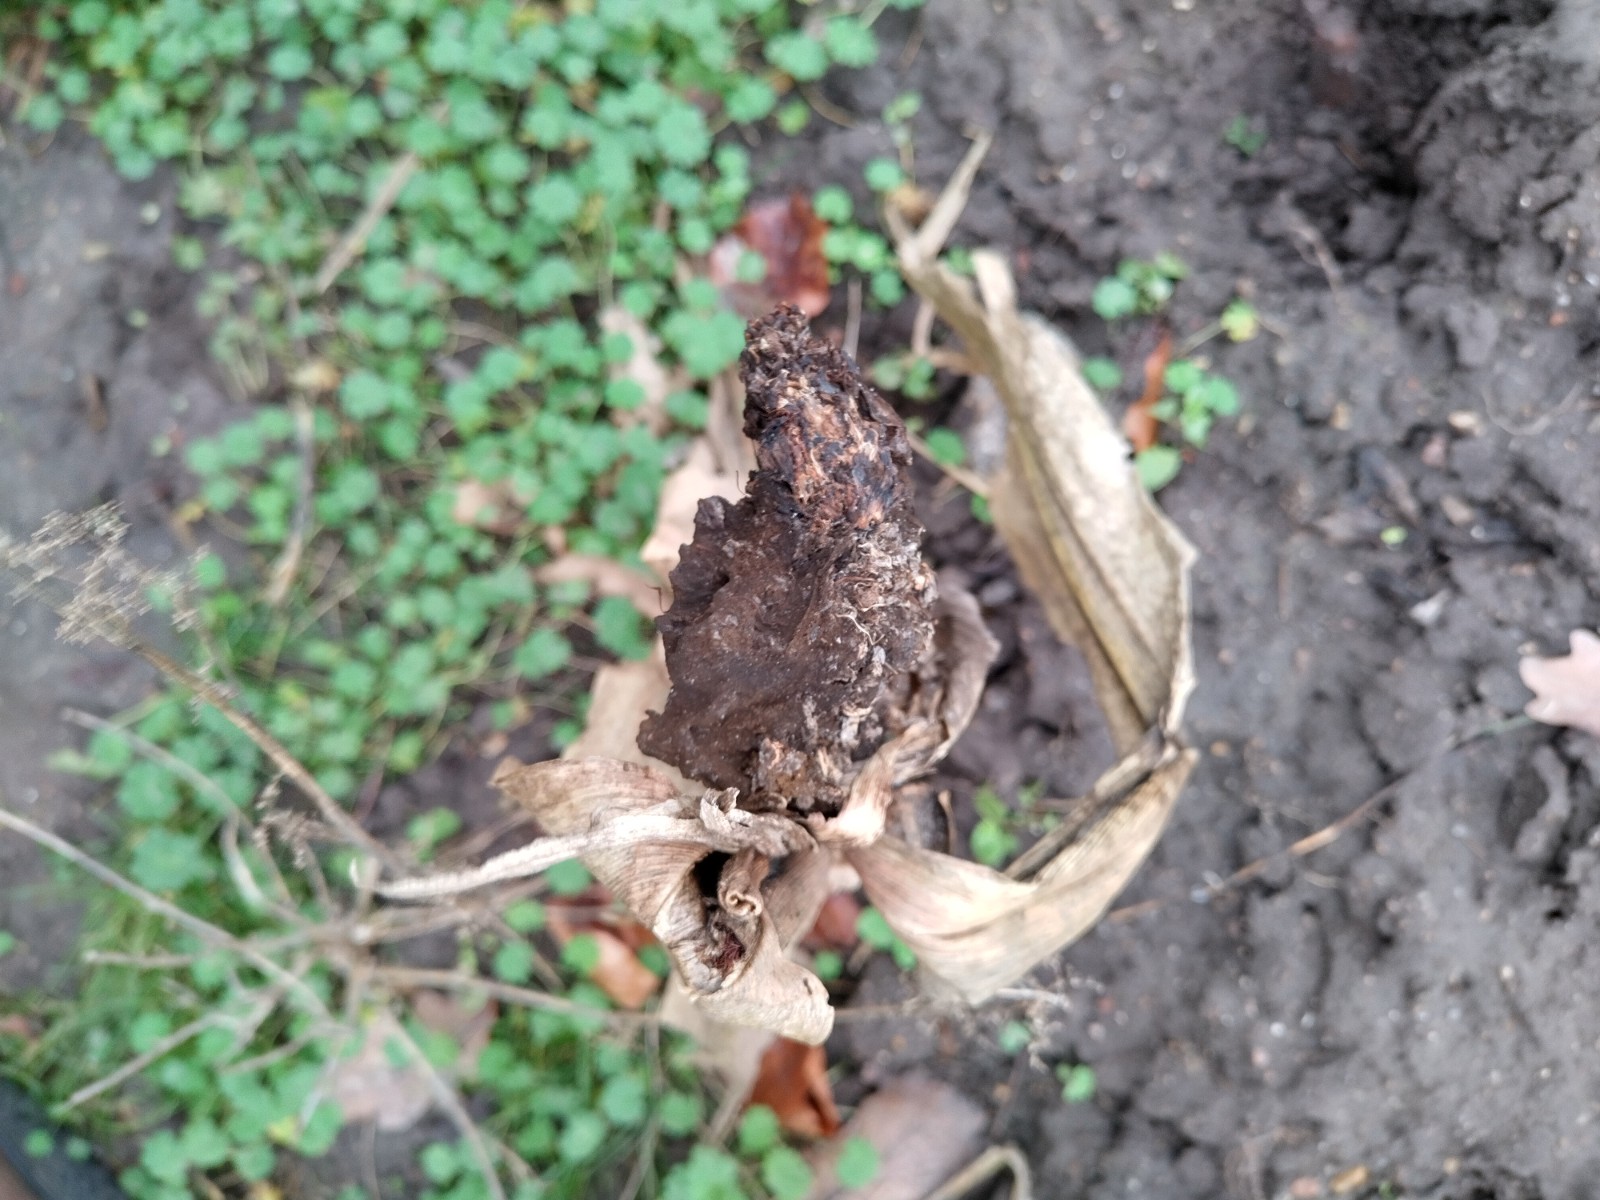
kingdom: Fungi
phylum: Basidiomycota
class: Ustilaginomycetes
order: Ustilaginales
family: Ustilaginaceae
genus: Mycosarcoma
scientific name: Mycosarcoma maydis
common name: majs-brand
